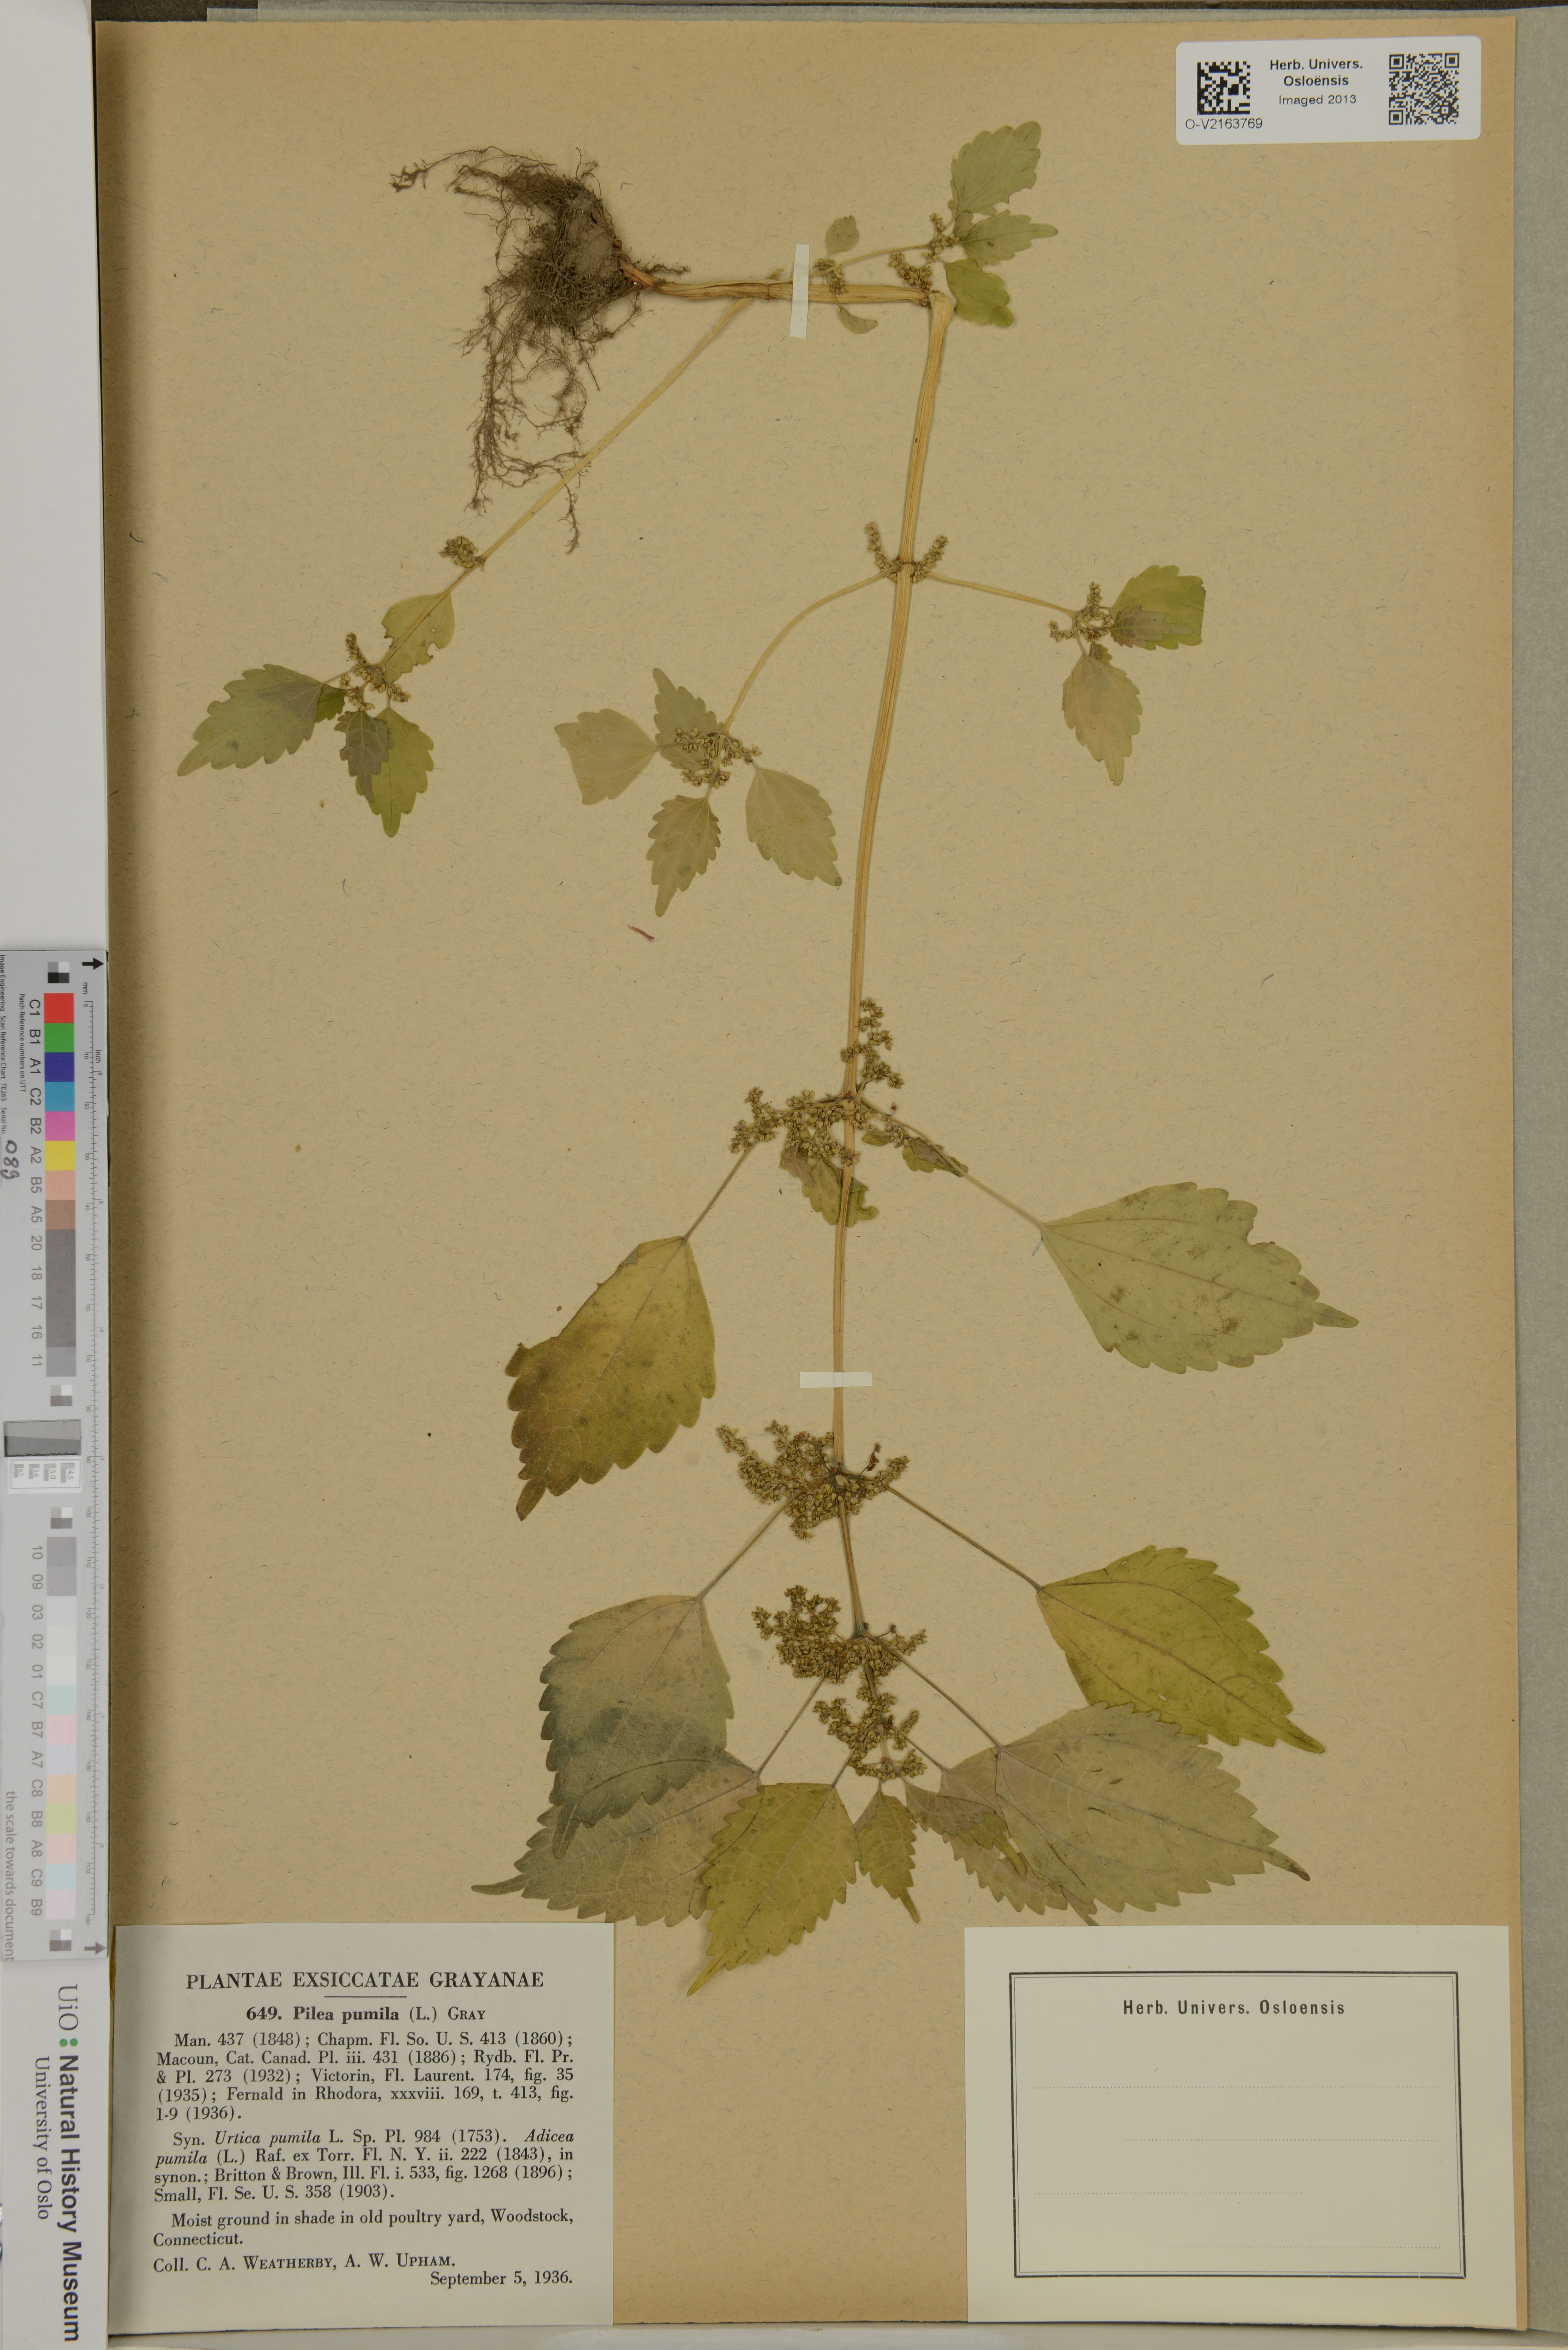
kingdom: Plantae
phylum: Tracheophyta
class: Magnoliopsida
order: Rosales
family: Urticaceae
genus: Pilea
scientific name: Pilea pumila
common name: Clearweed
